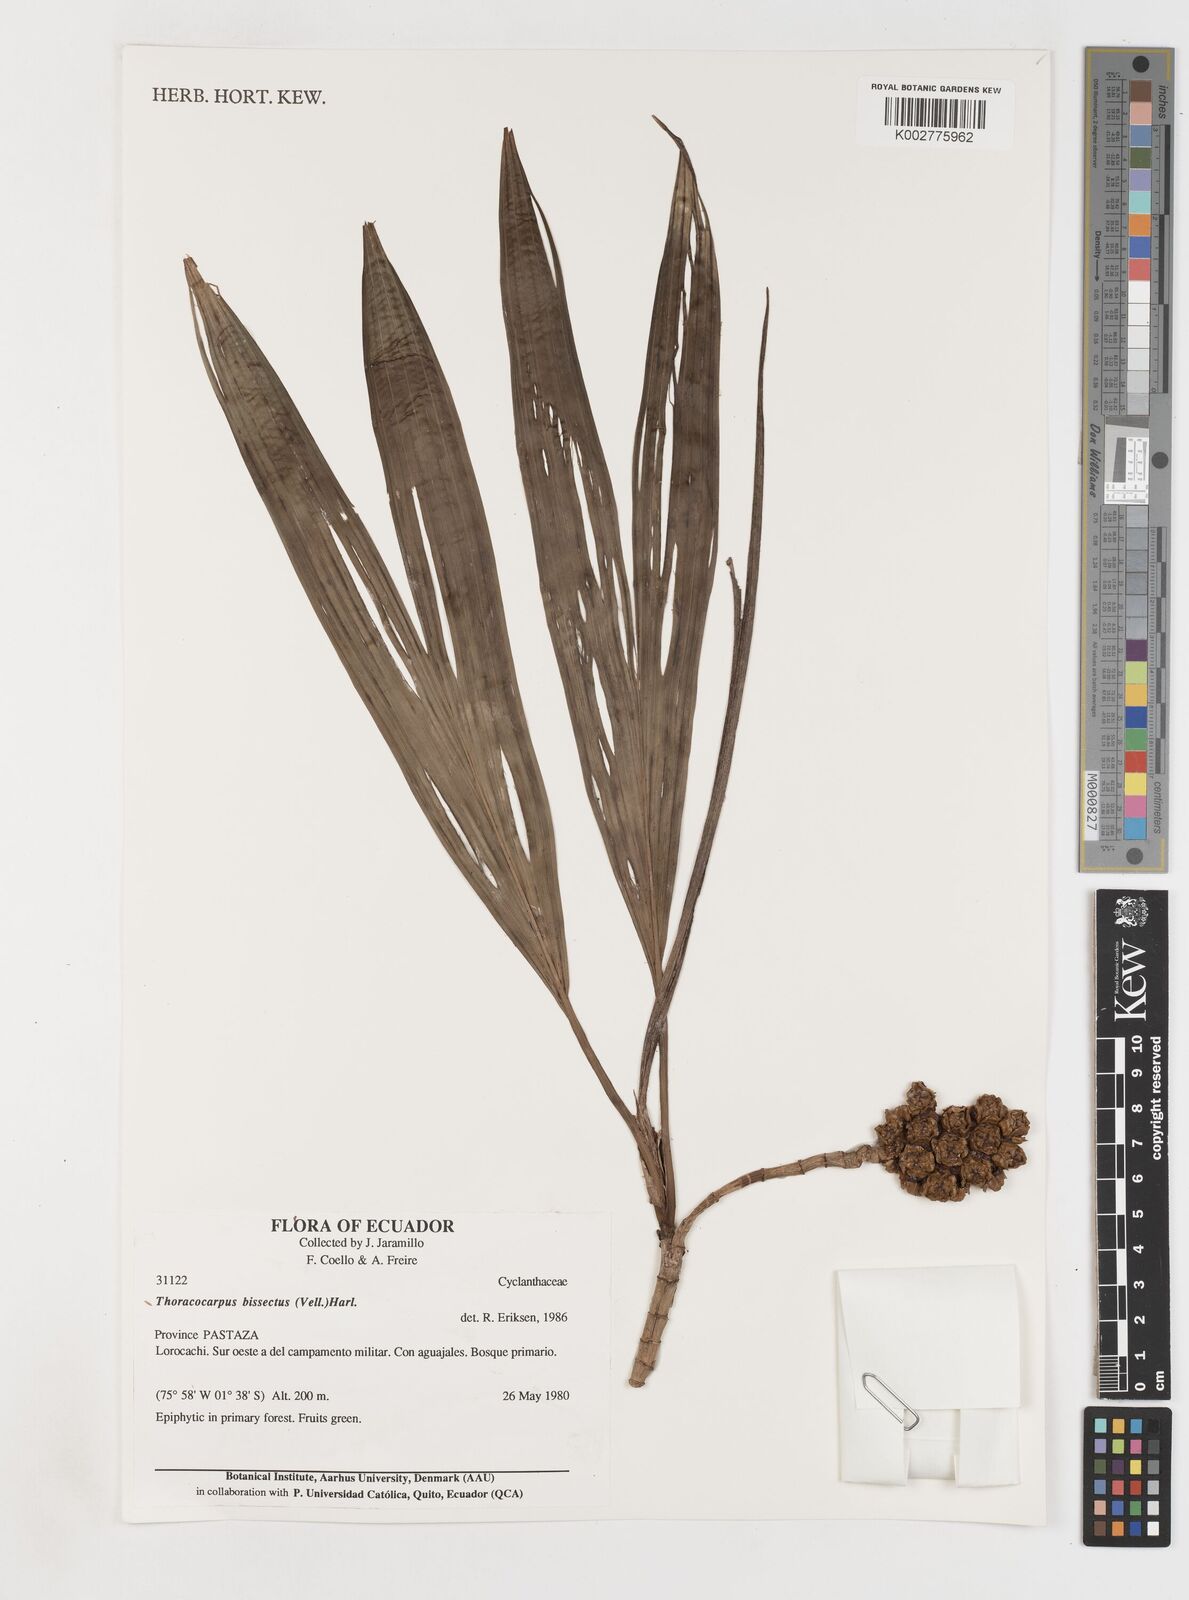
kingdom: Plantae
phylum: Tracheophyta
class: Liliopsida
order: Pandanales
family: Cyclanthaceae
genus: Thoracocarpus
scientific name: Thoracocarpus bissectus
